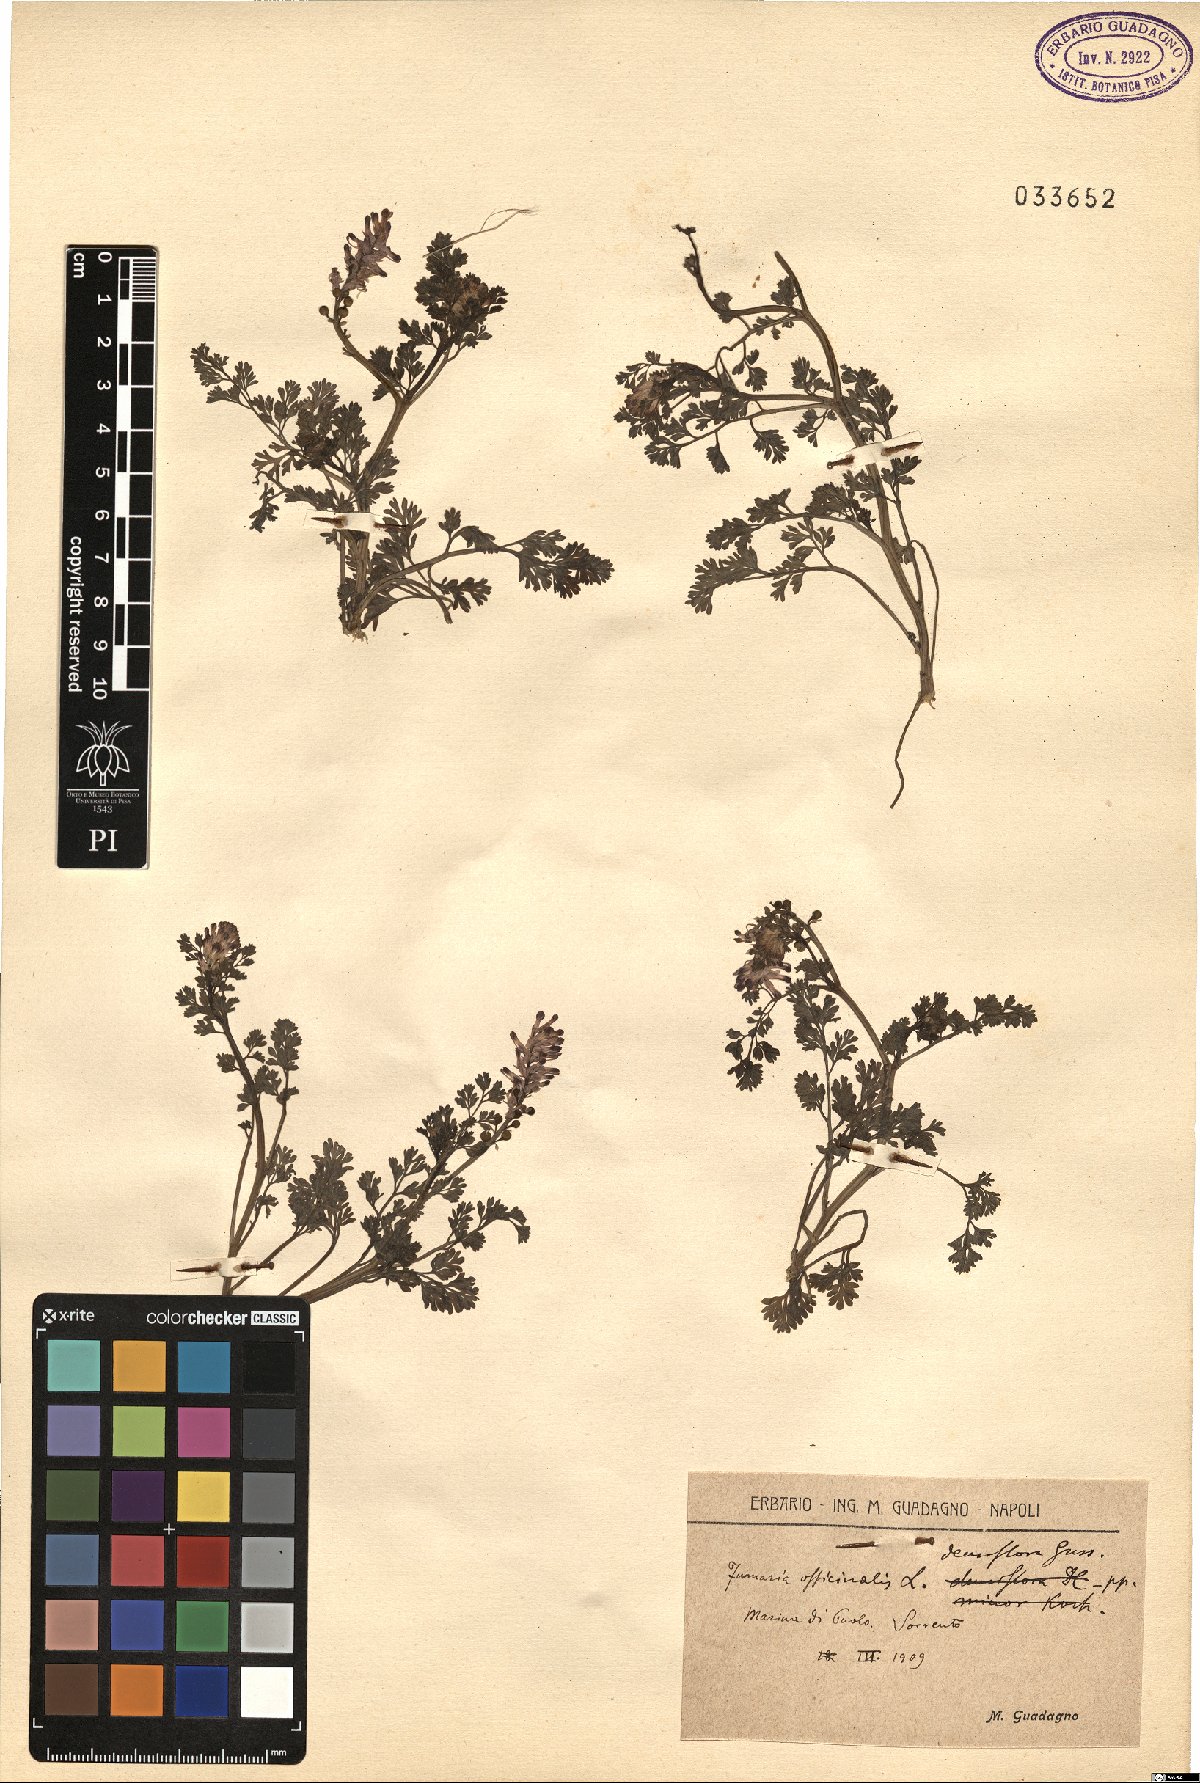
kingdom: Plantae
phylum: Tracheophyta
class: Magnoliopsida
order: Ranunculales
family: Papaveraceae
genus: Fumaria
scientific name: Fumaria densiflora
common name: Dense-flowered fumitory
